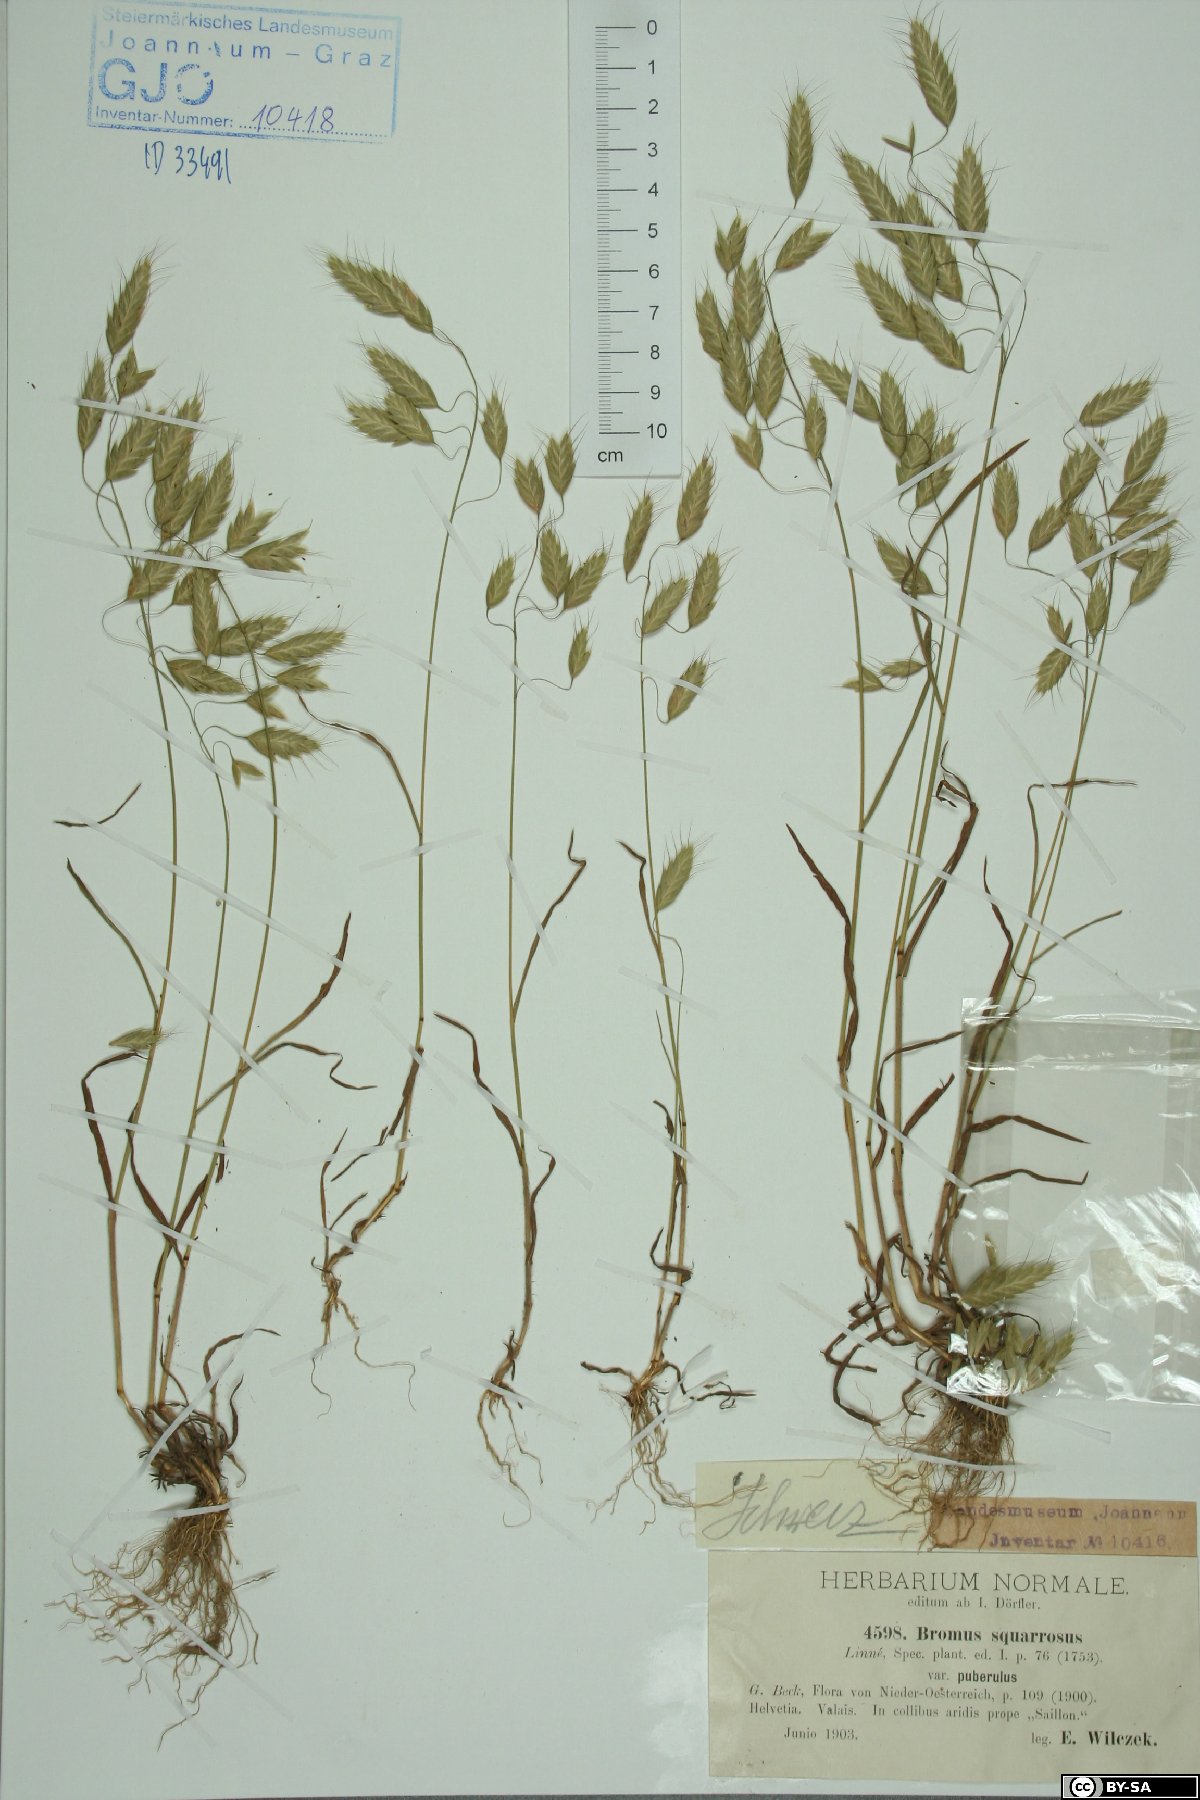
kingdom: Plantae
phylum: Tracheophyta
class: Liliopsida
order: Poales
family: Poaceae
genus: Bromus
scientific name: Bromus squarrosus
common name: Corn brome
